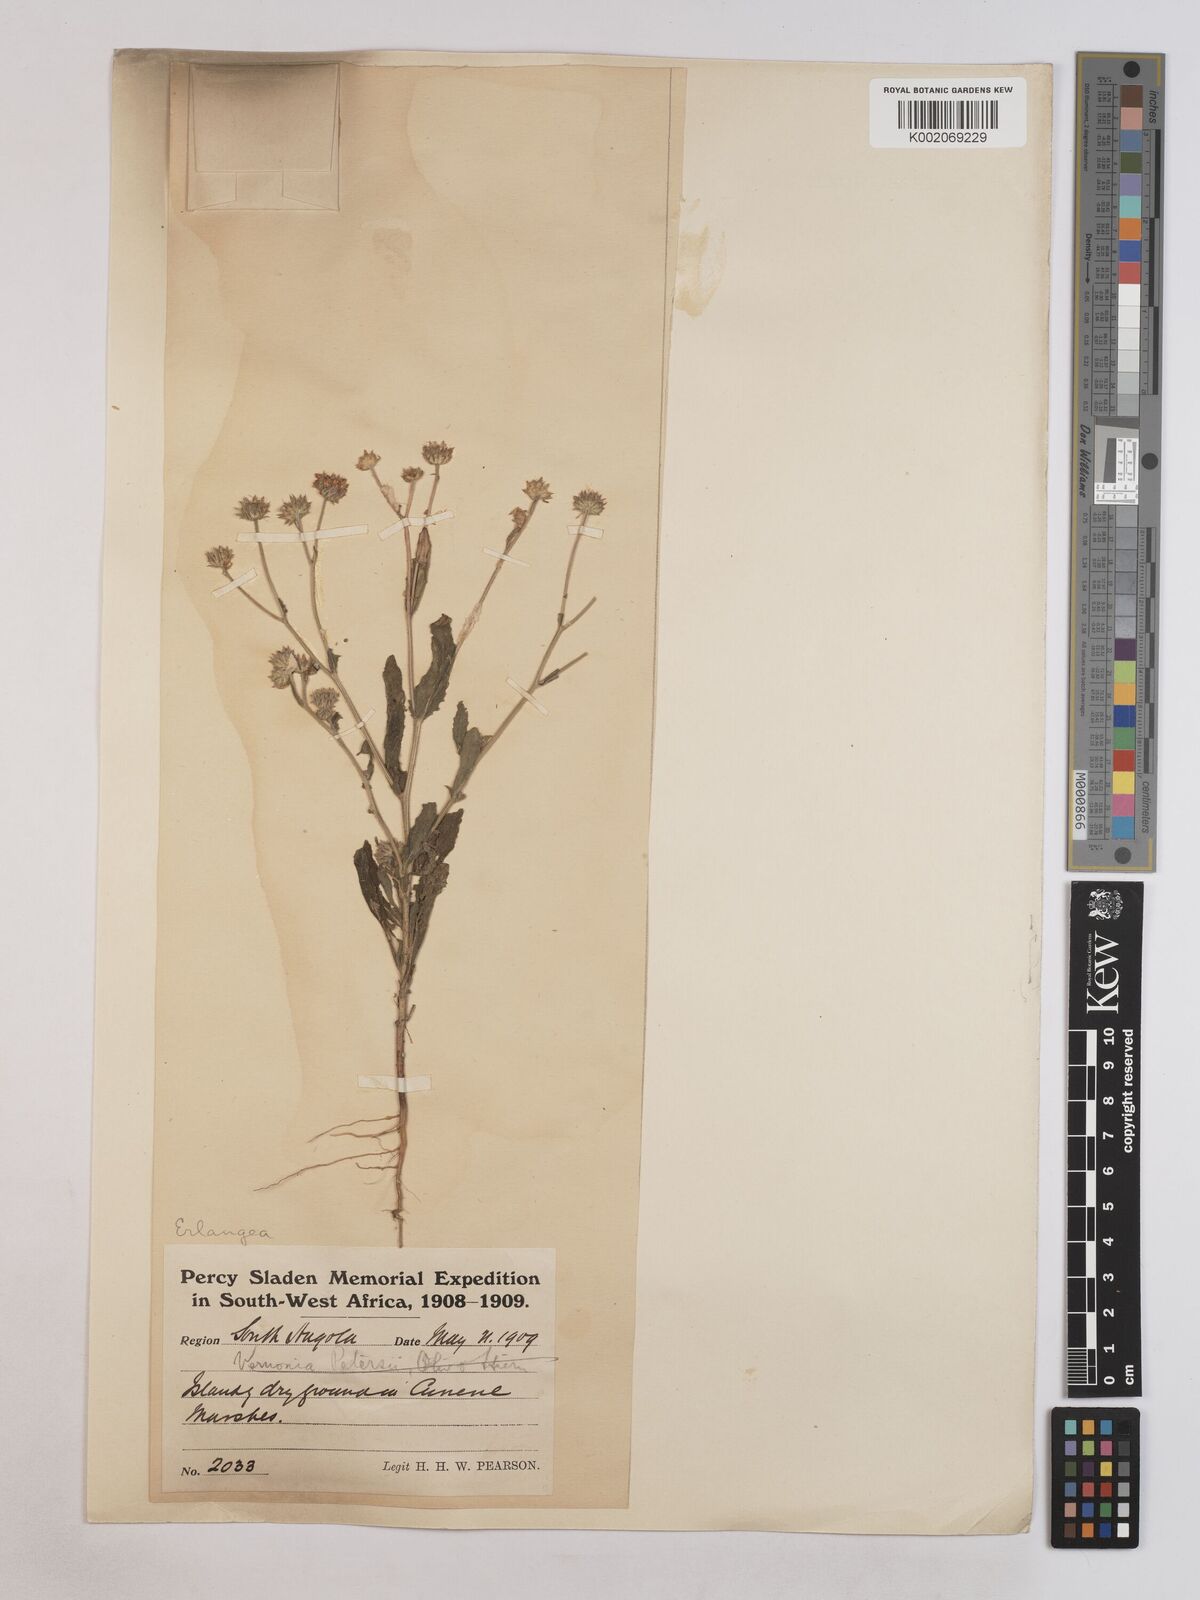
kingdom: Plantae
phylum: Tracheophyta
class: Magnoliopsida
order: Asterales
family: Asteraceae
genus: Erlangea
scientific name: Erlangea misera
